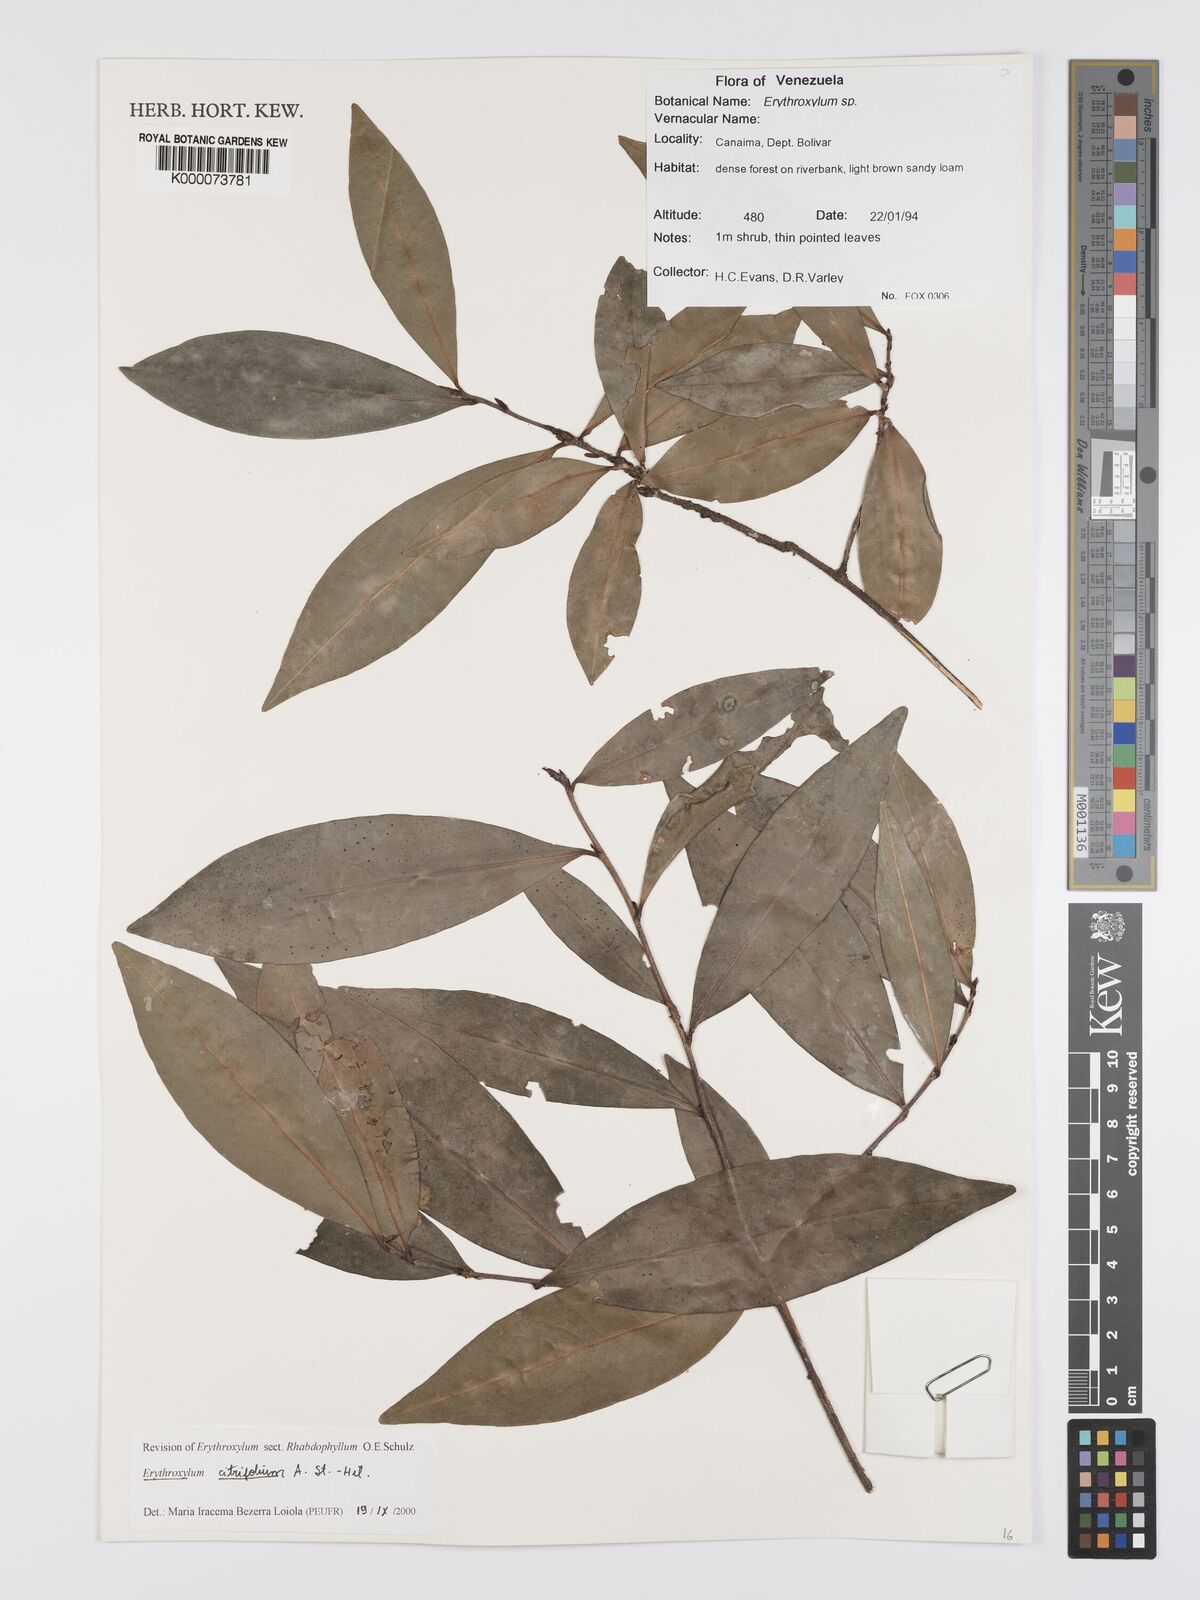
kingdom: Plantae
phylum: Tracheophyta
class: Magnoliopsida
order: Malpighiales
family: Erythroxylaceae
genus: Erythroxylum
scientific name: Erythroxylum citrifolium
